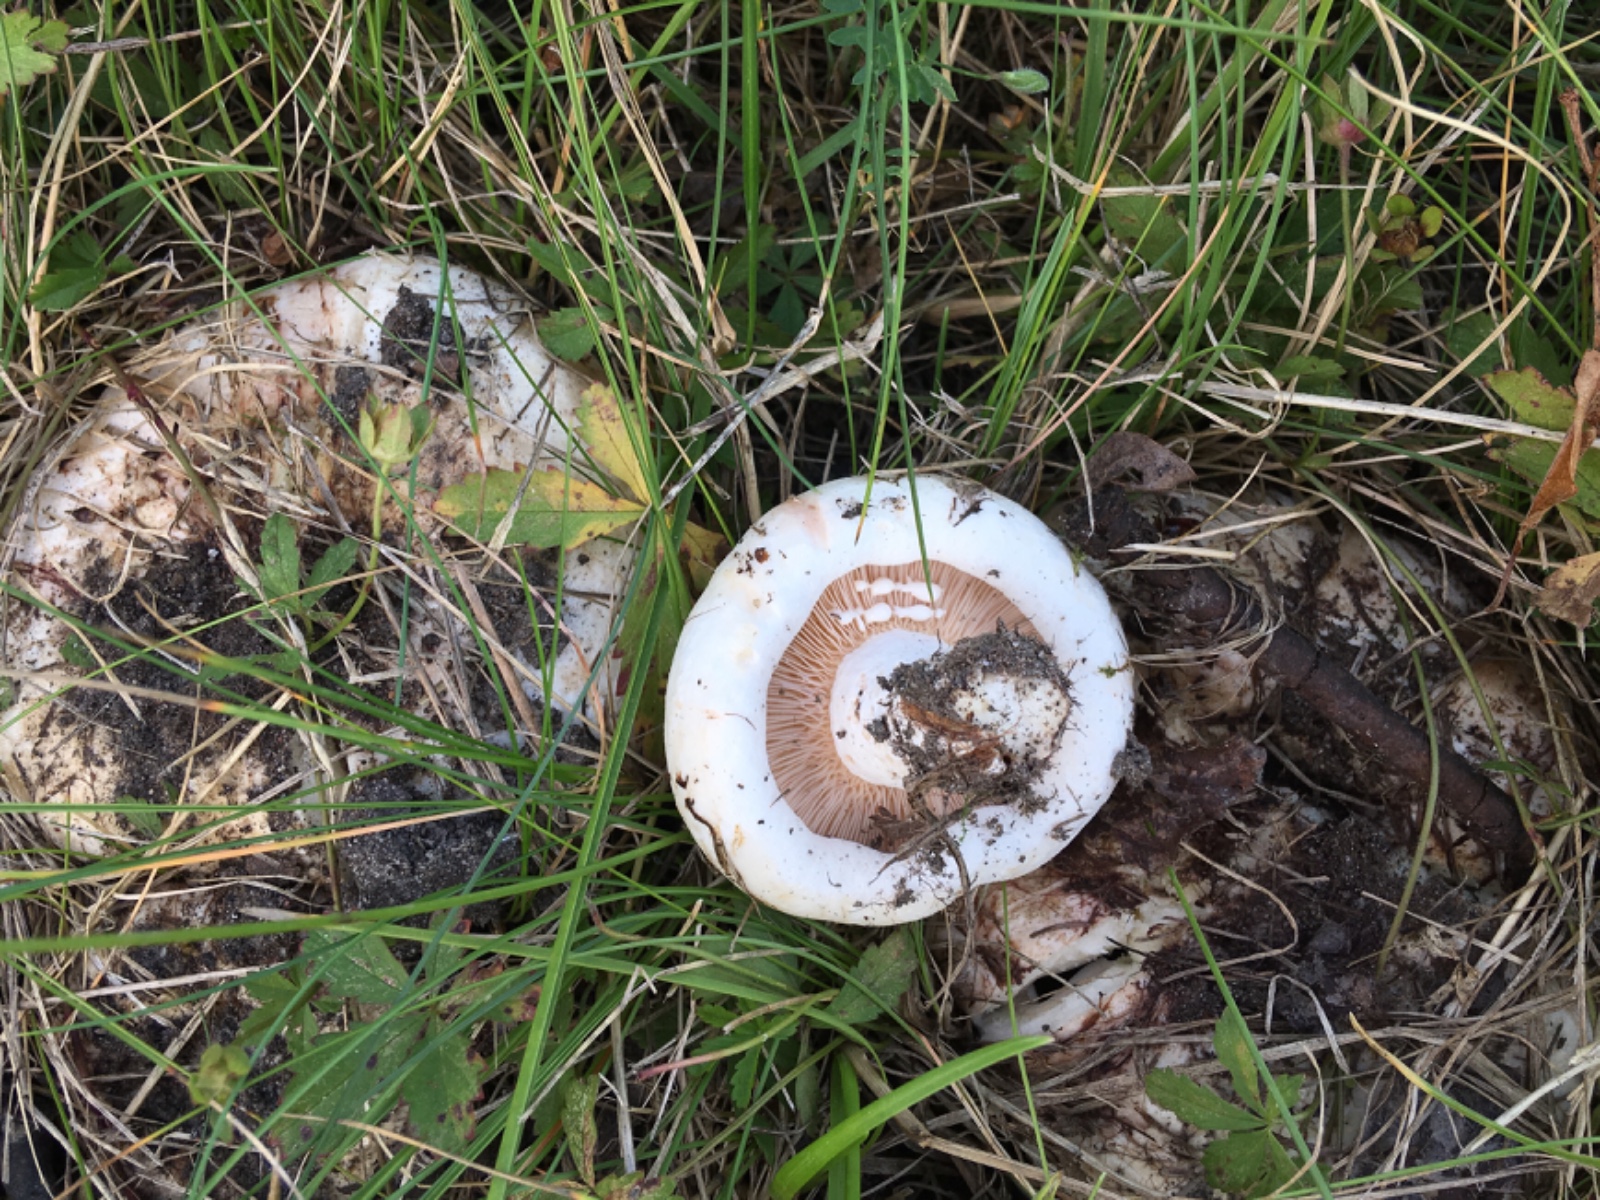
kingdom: Fungi
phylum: Basidiomycota
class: Agaricomycetes
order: Russulales
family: Russulaceae
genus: Lactarius
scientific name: Lactarius controversus
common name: rosabladet mælkehat
